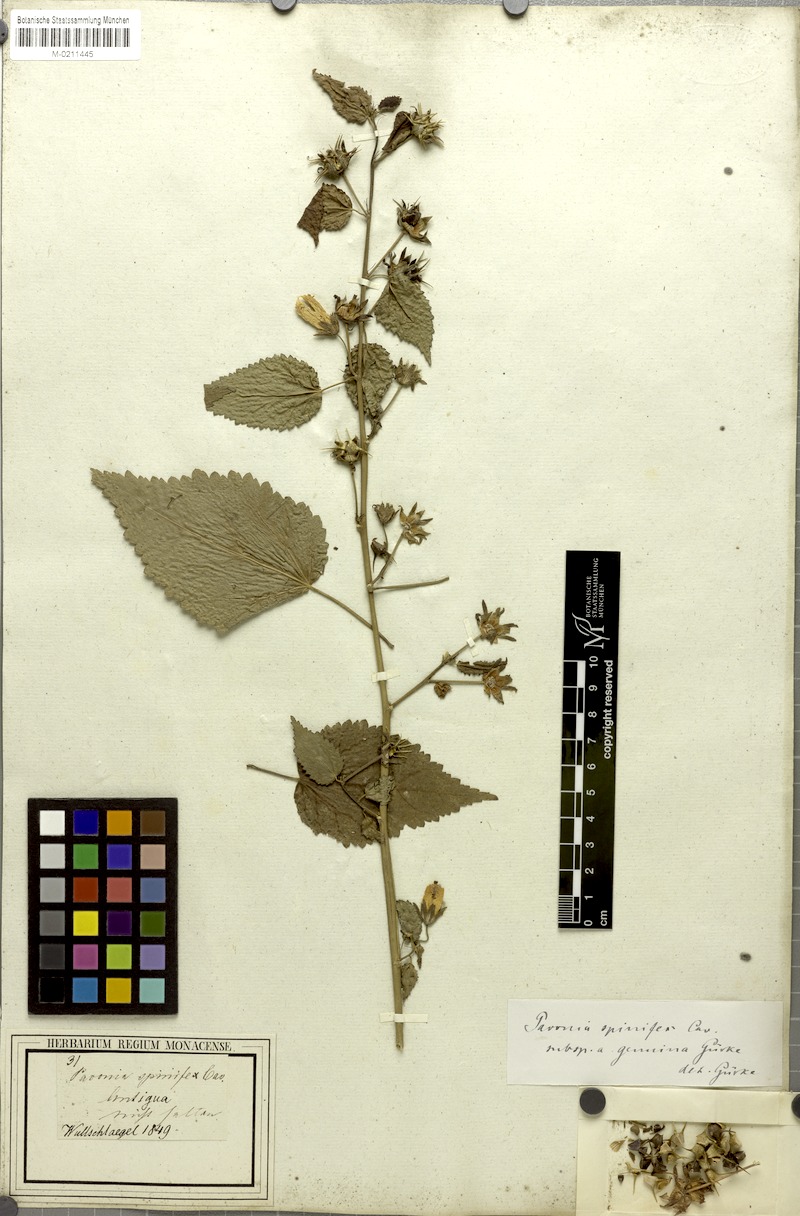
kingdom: Plantae
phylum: Tracheophyta
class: Magnoliopsida
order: Malvales
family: Malvaceae
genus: Pavonia
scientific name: Pavonia spinifex
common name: Ginger bush
